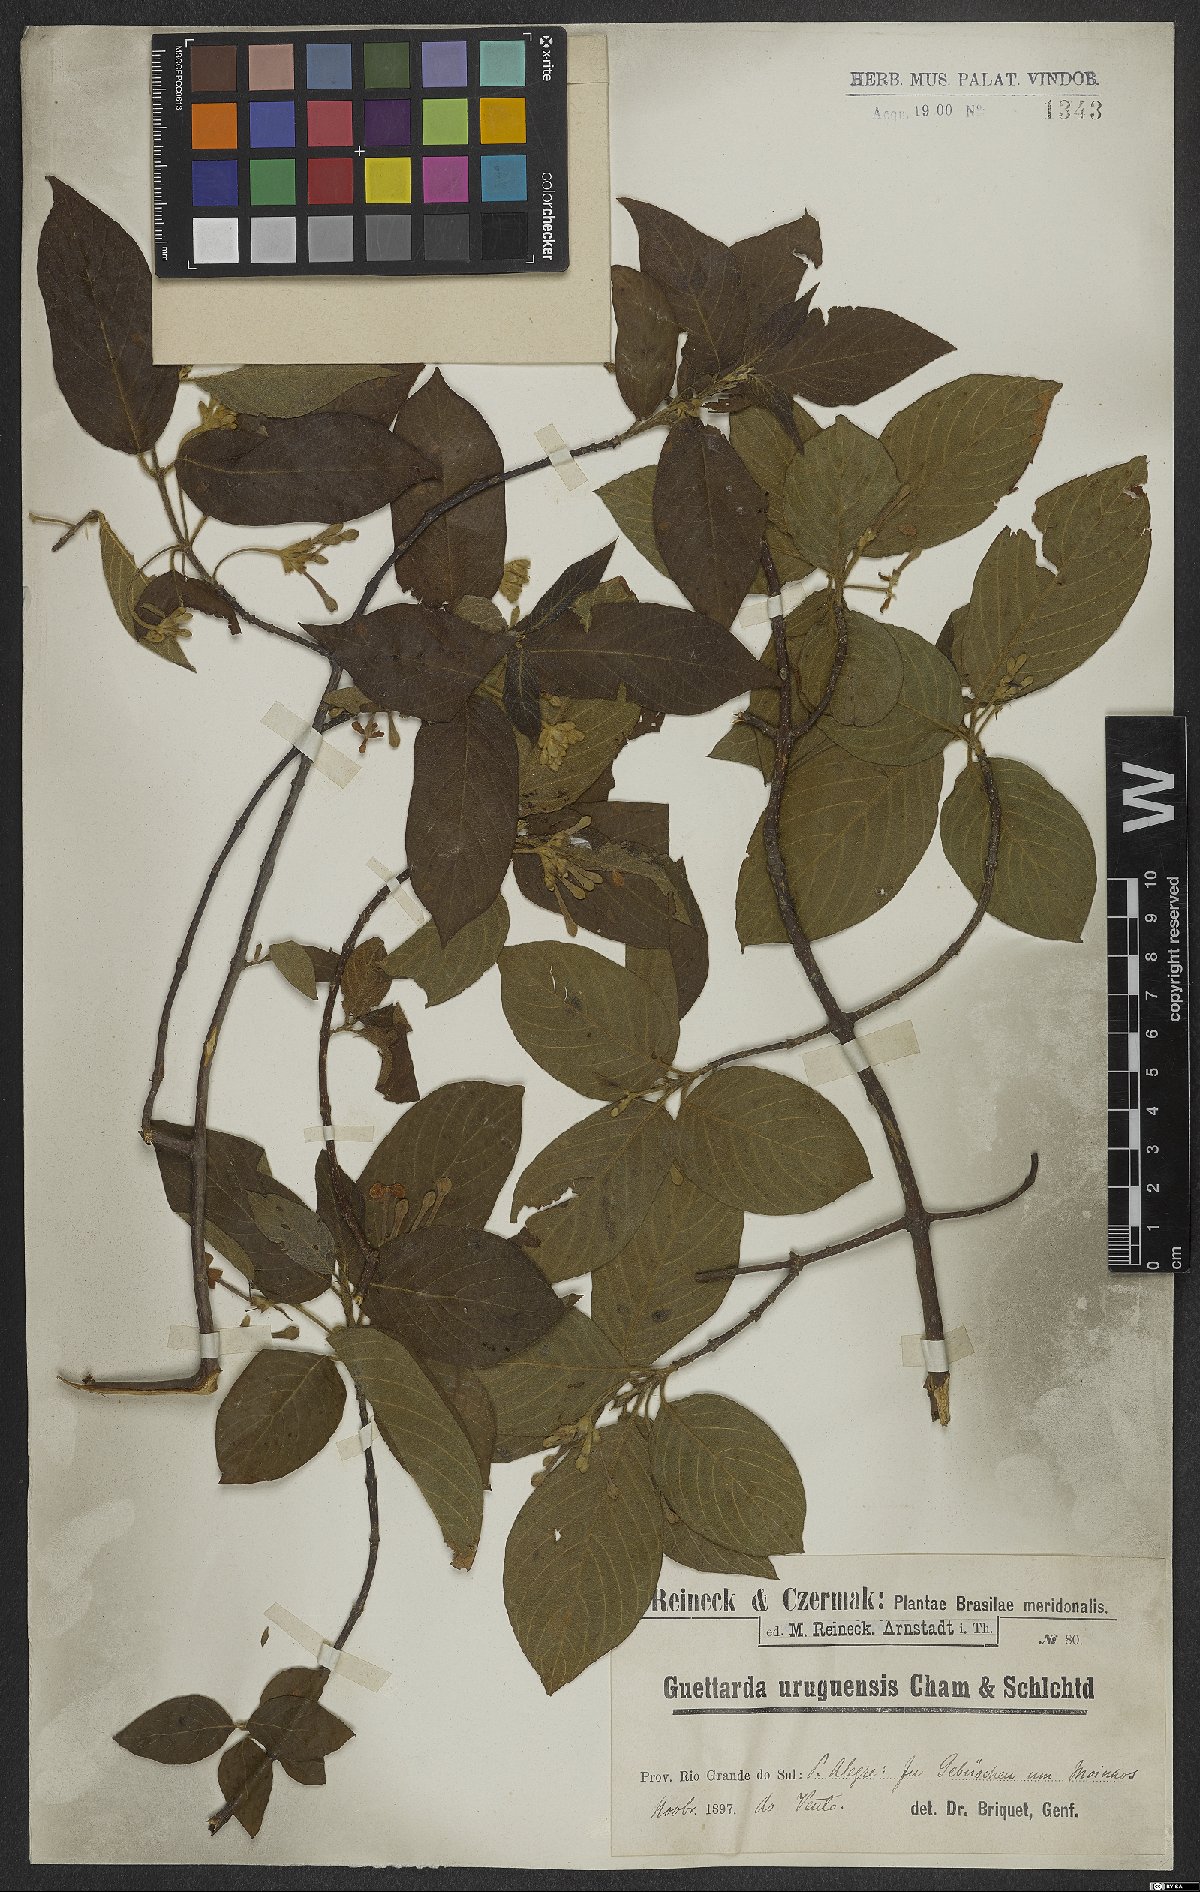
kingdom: Plantae
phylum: Tracheophyta
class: Magnoliopsida
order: Gentianales
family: Rubiaceae
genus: Guettarda
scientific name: Guettarda uruguensis
